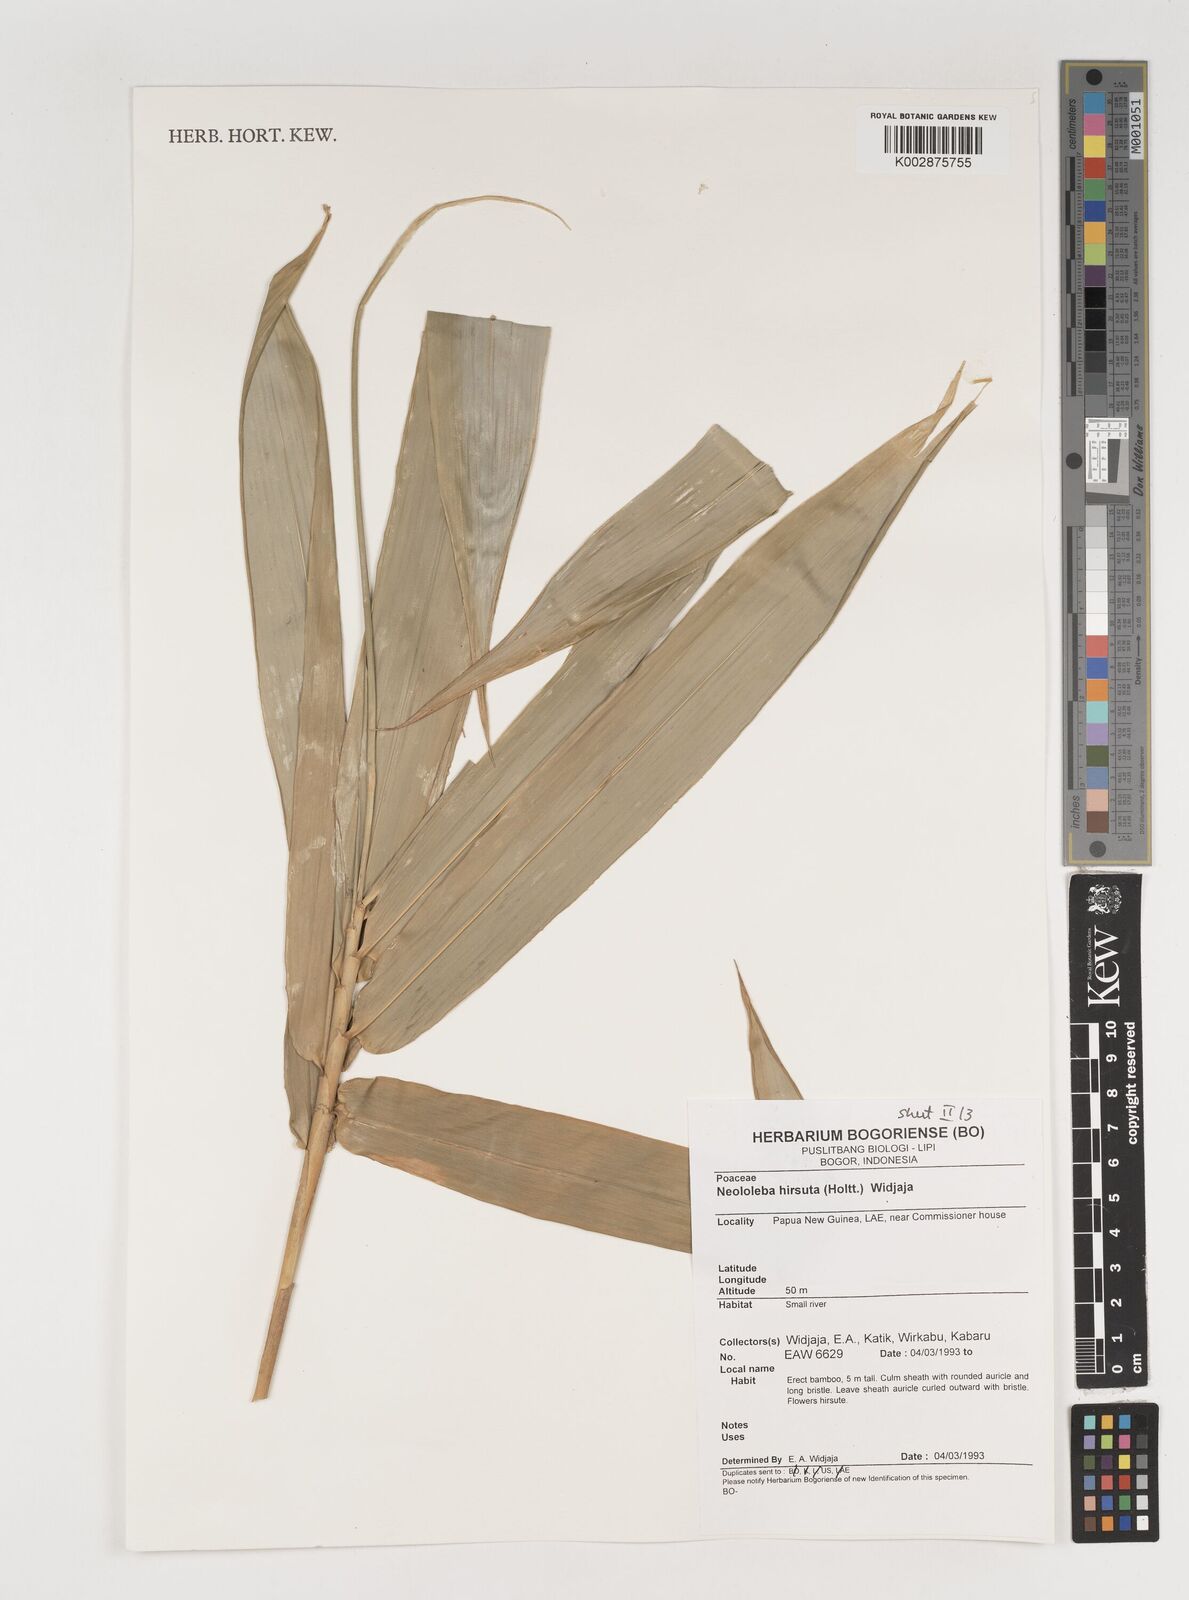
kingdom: Plantae
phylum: Tracheophyta
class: Liliopsida
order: Poales
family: Poaceae
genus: Neololeba
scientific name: Neololeba hirsuta
